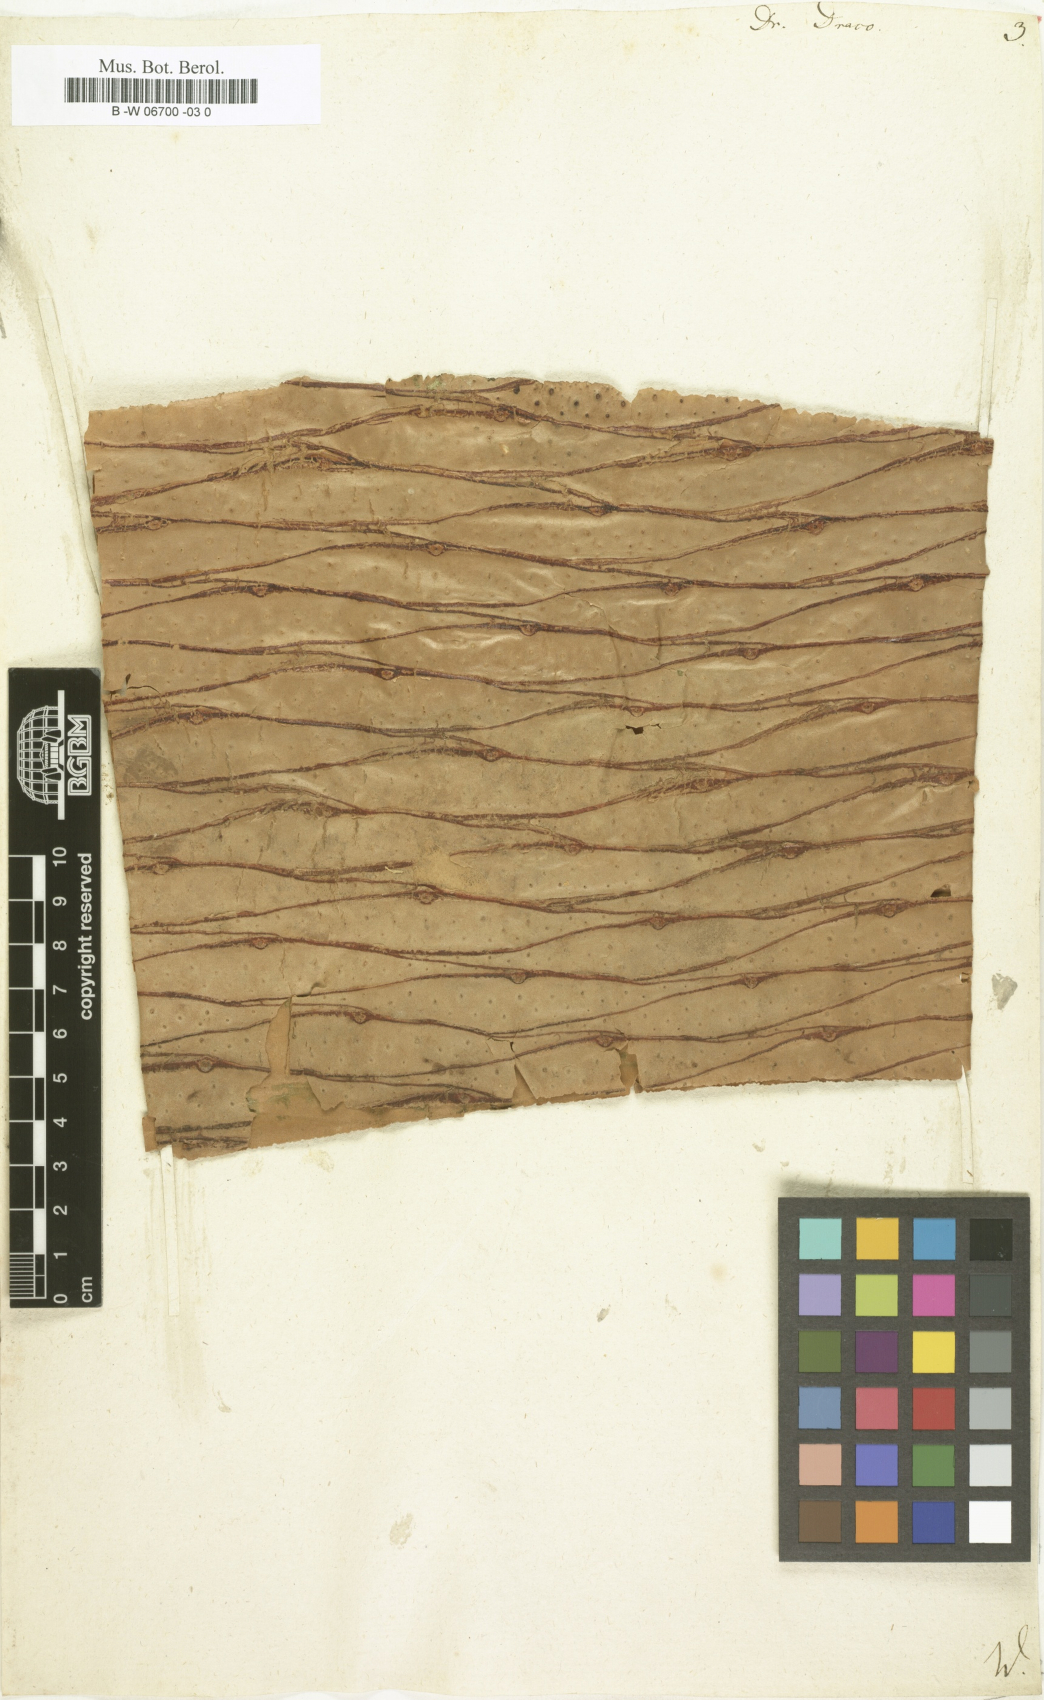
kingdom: Plantae
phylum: Tracheophyta
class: Liliopsida
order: Asparagales
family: Asparagaceae
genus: Dracaena
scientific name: Dracaena draco
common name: Canary island dragon tree
